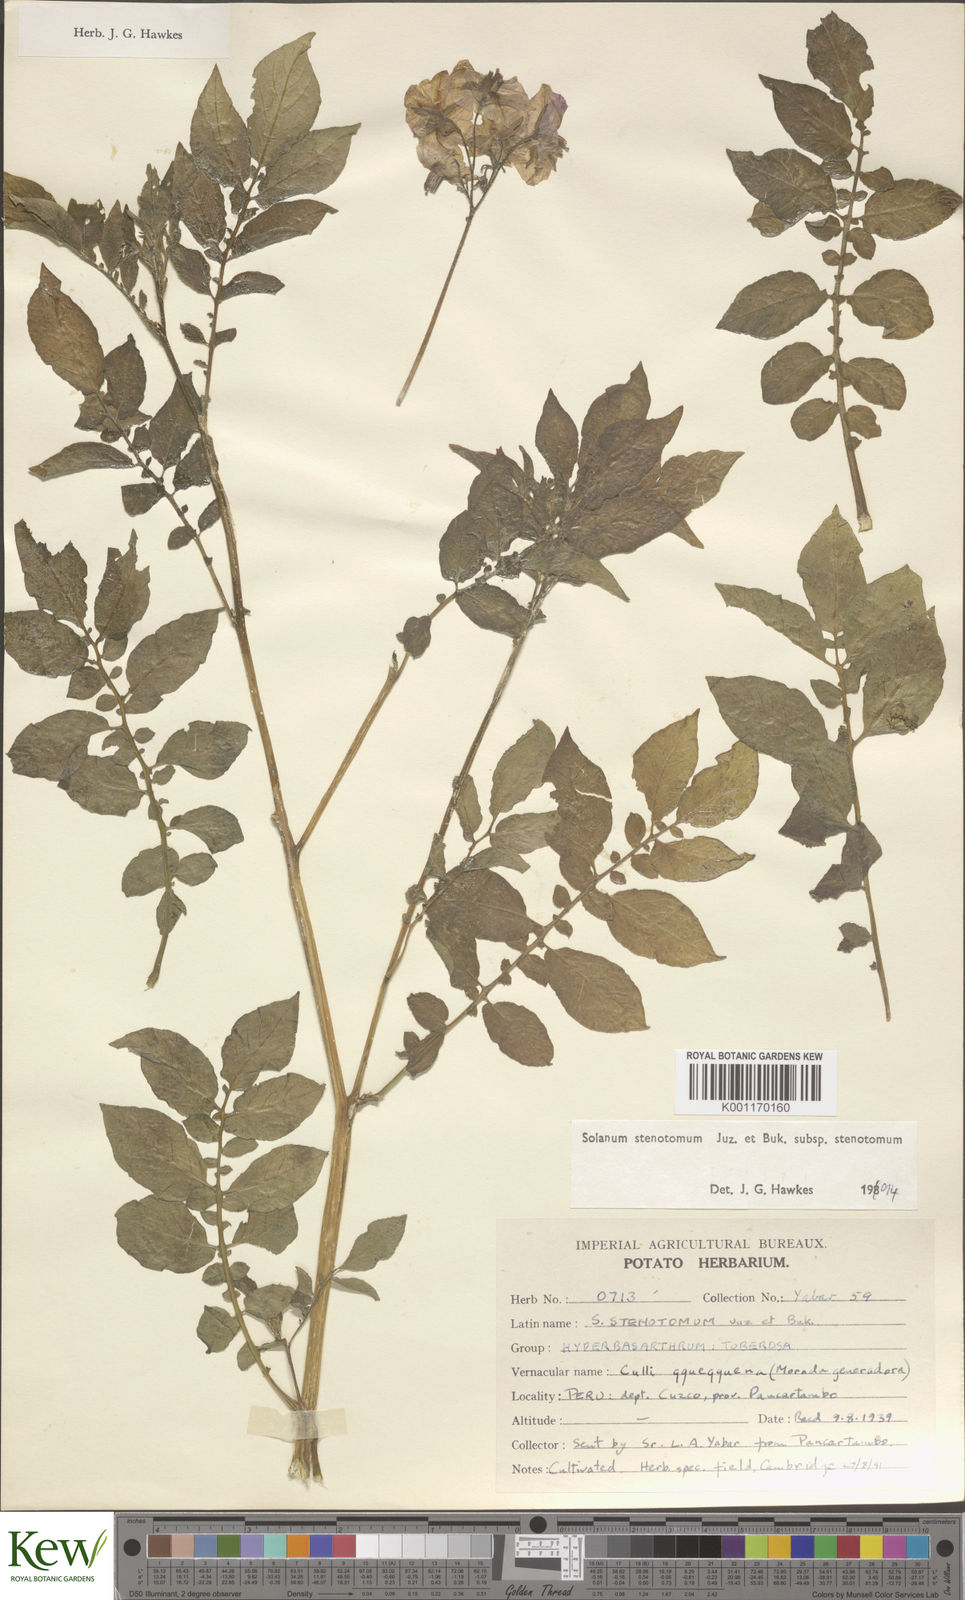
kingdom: Plantae
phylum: Tracheophyta
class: Magnoliopsida
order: Solanales
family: Solanaceae
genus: Solanum
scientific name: Solanum tuberosum
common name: Potato
